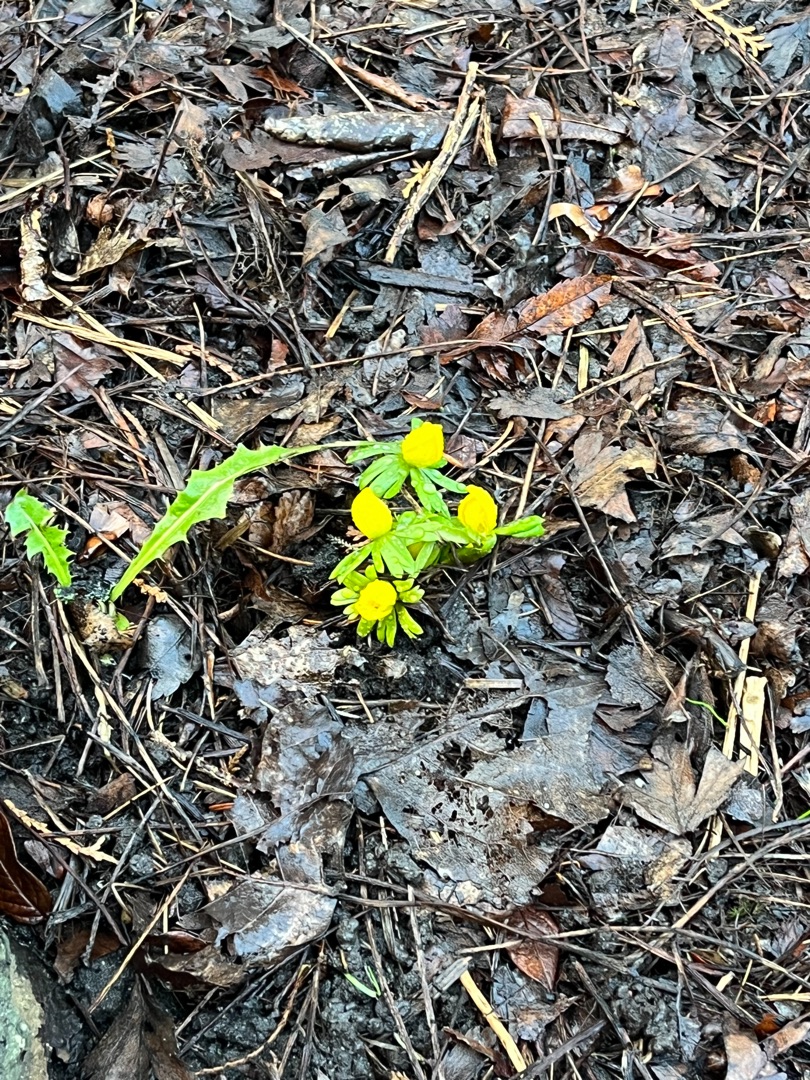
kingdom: Plantae
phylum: Tracheophyta
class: Magnoliopsida
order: Ranunculales
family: Ranunculaceae
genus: Eranthis
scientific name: Eranthis hyemalis
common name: Erantis
